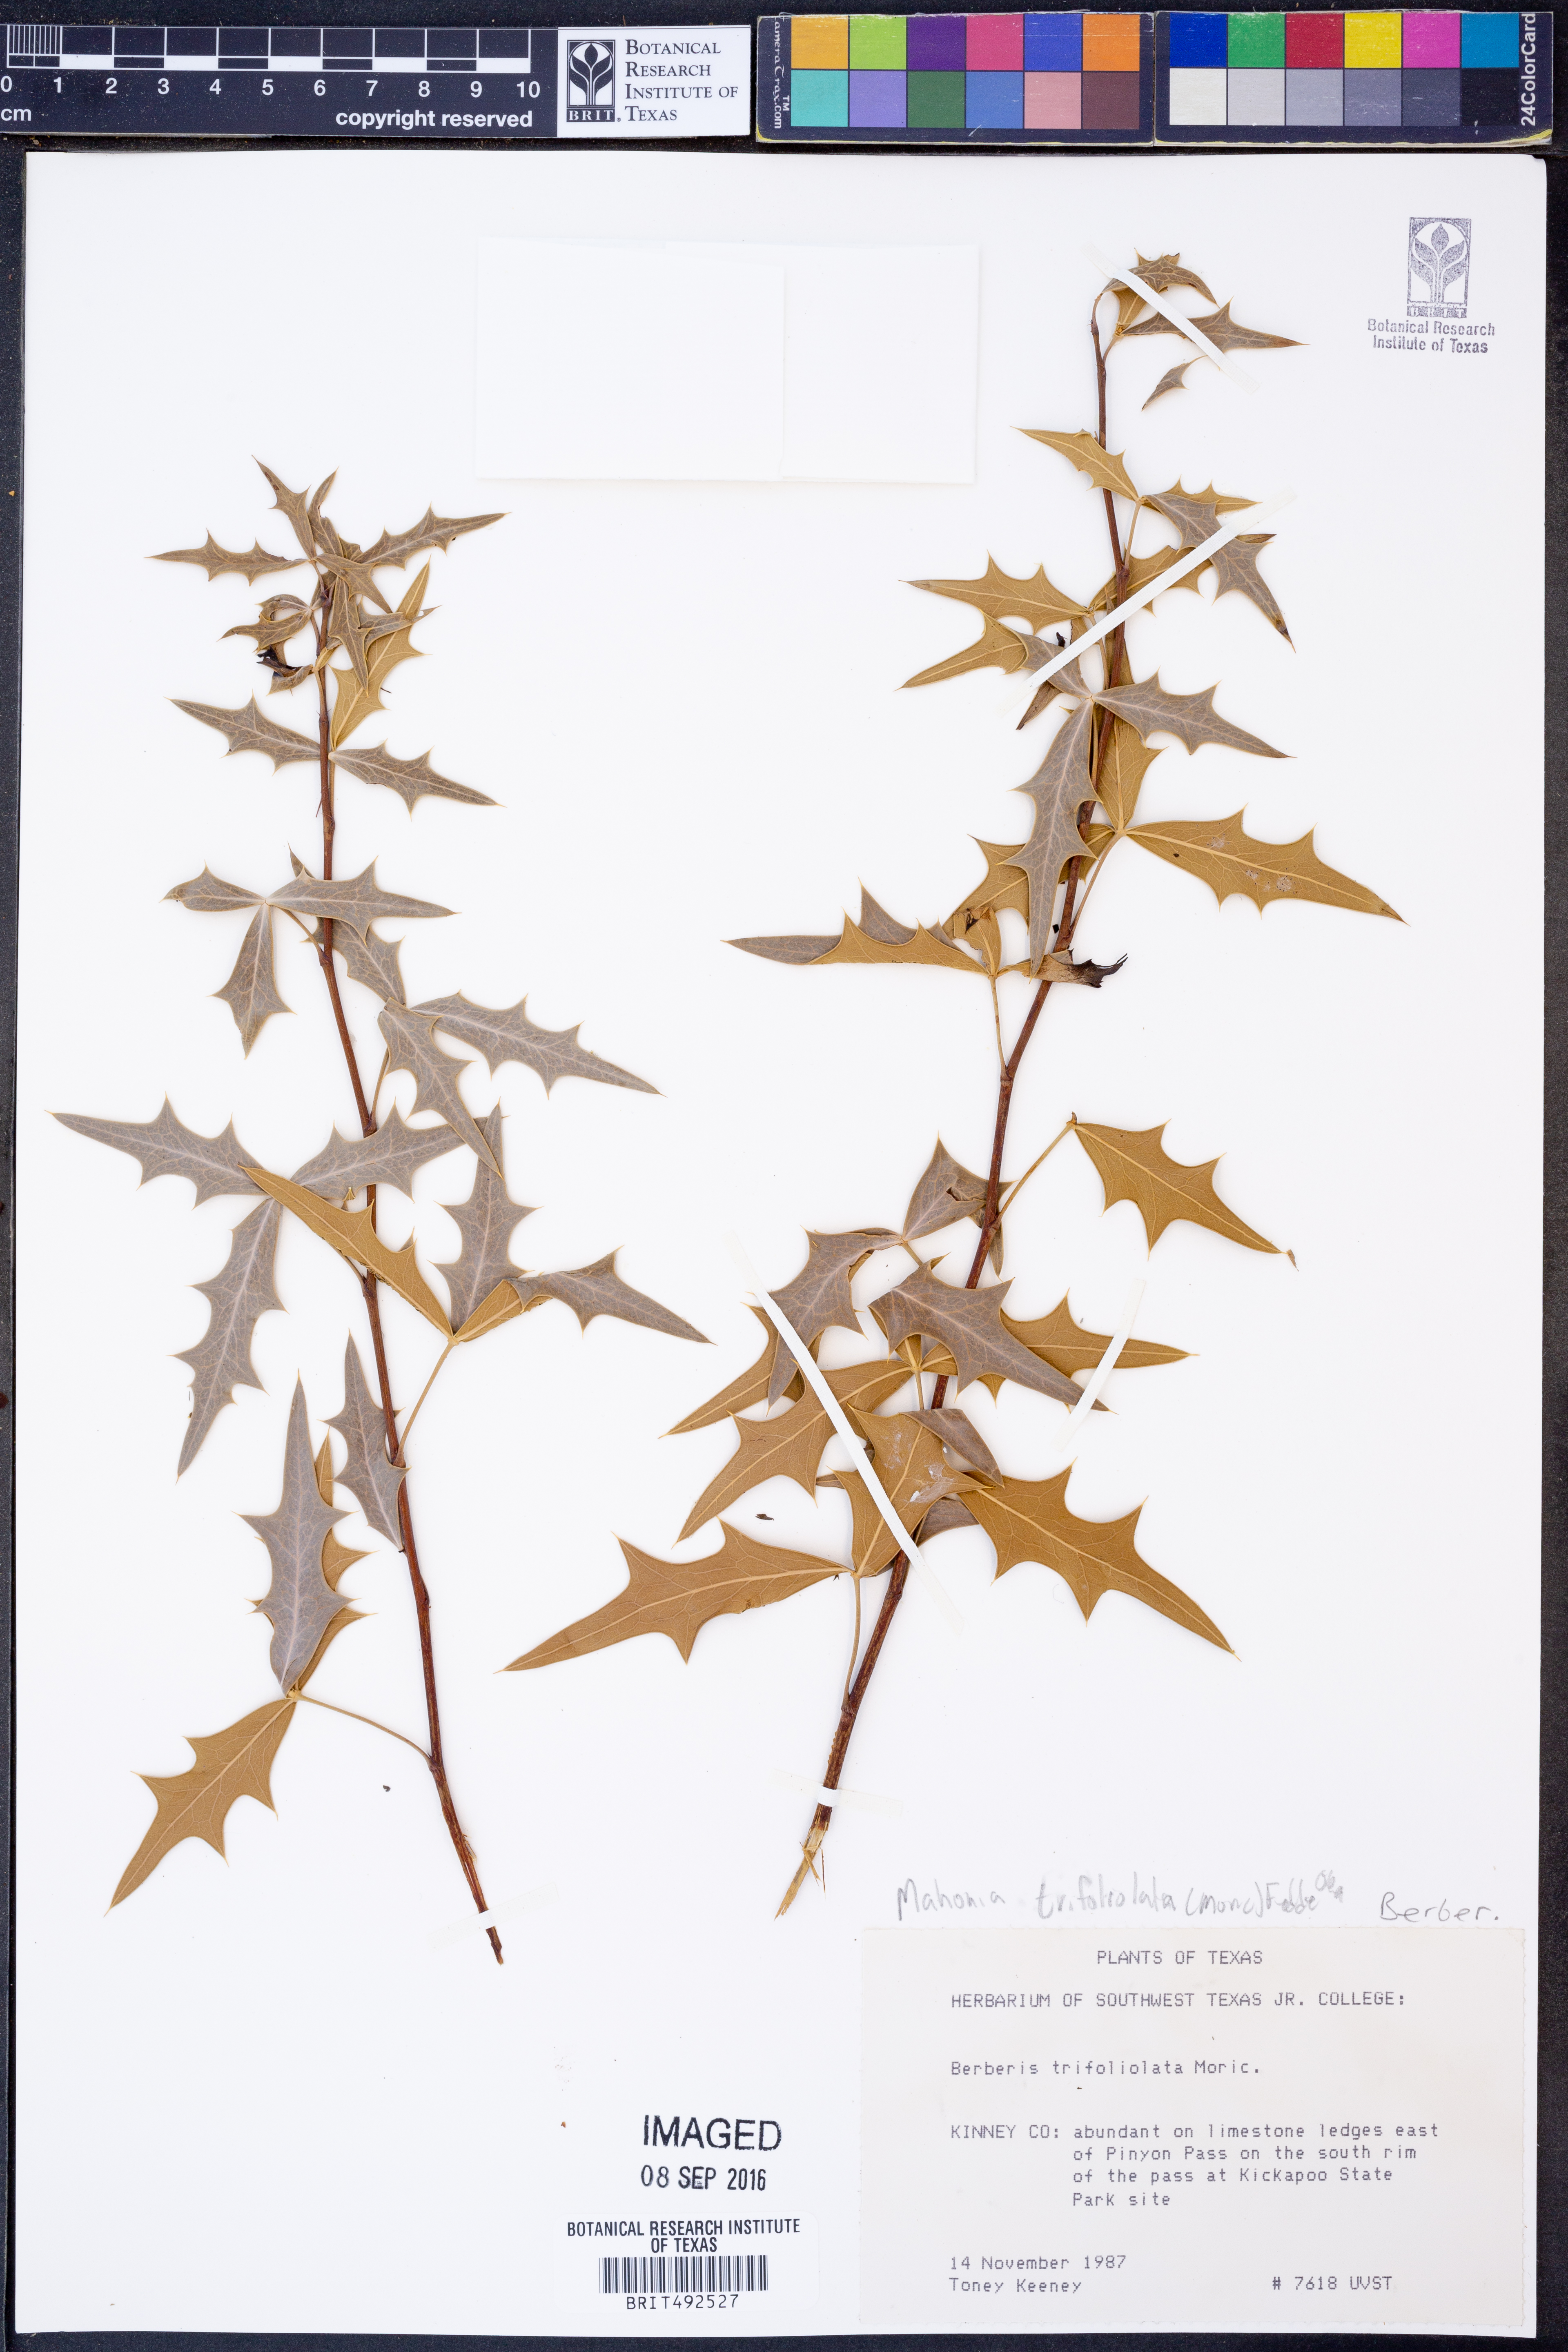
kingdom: Plantae
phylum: Tracheophyta
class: Magnoliopsida
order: Ranunculales
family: Berberidaceae
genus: Alloberberis
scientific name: Alloberberis trifoliolata
